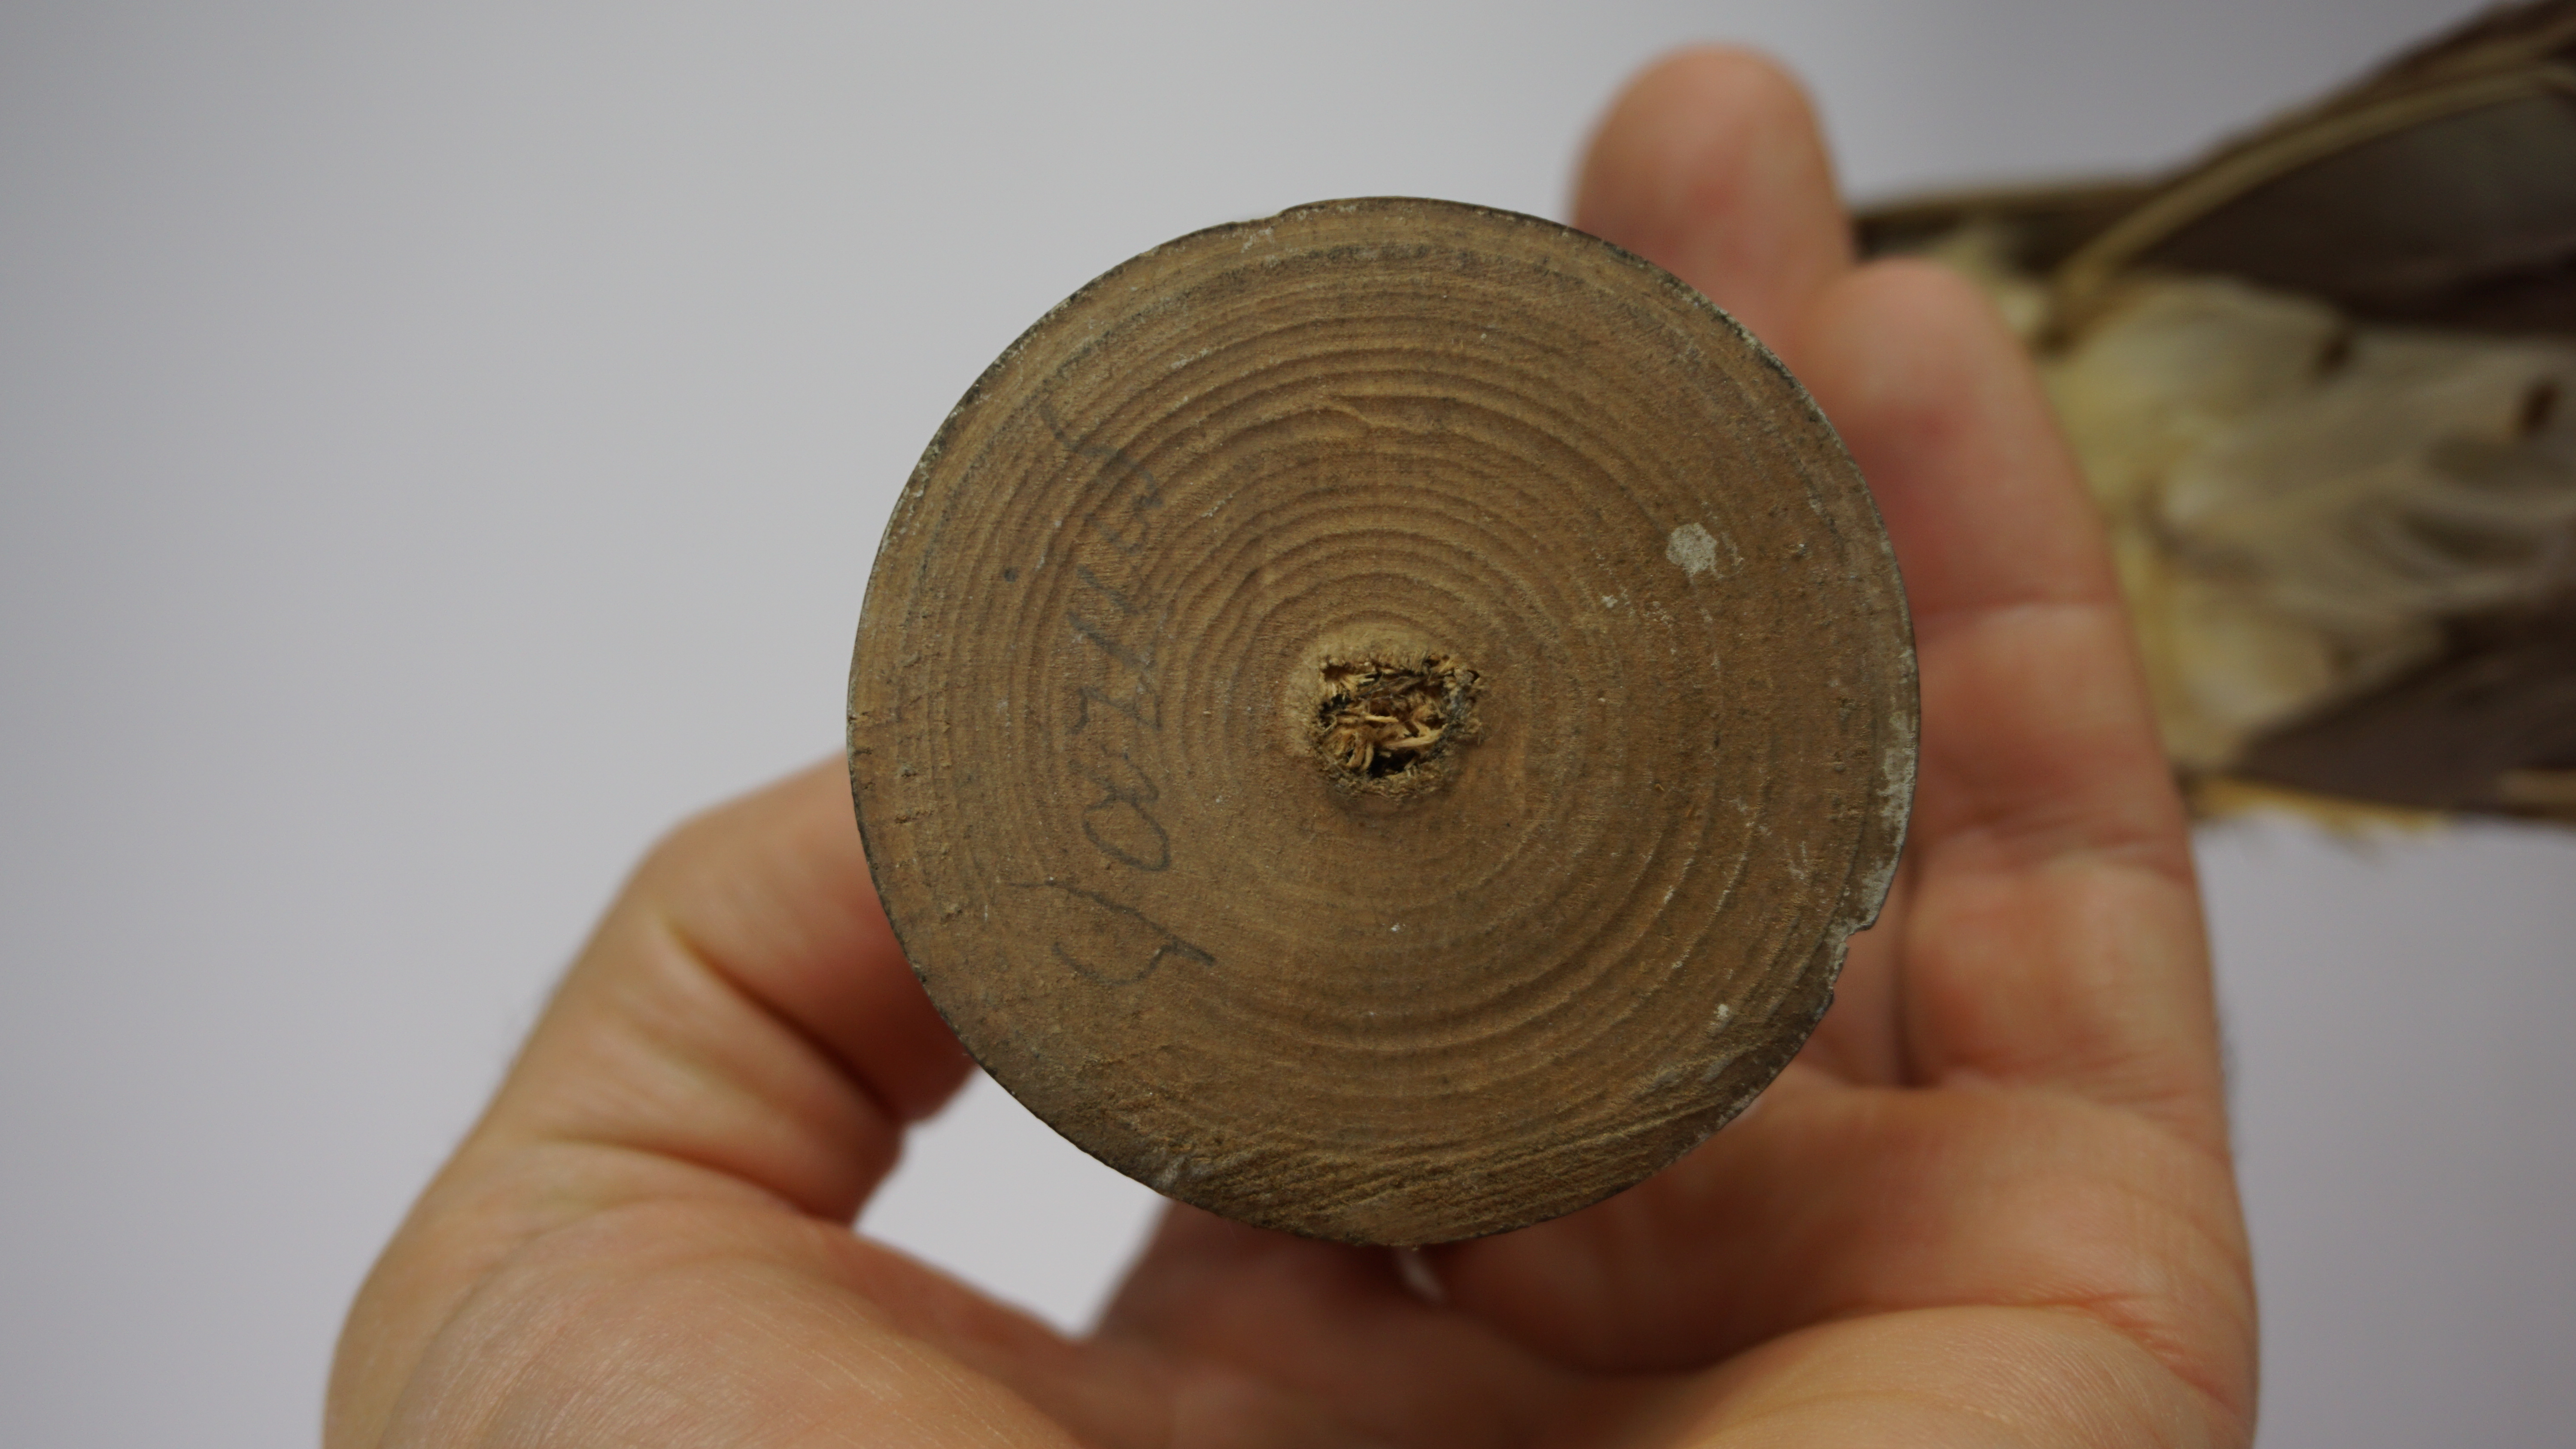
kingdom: Animalia
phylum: Chordata
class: Aves
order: Passeriformes
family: Turdidae
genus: Zoothera
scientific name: Zoothera aurea
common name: White's thrush
